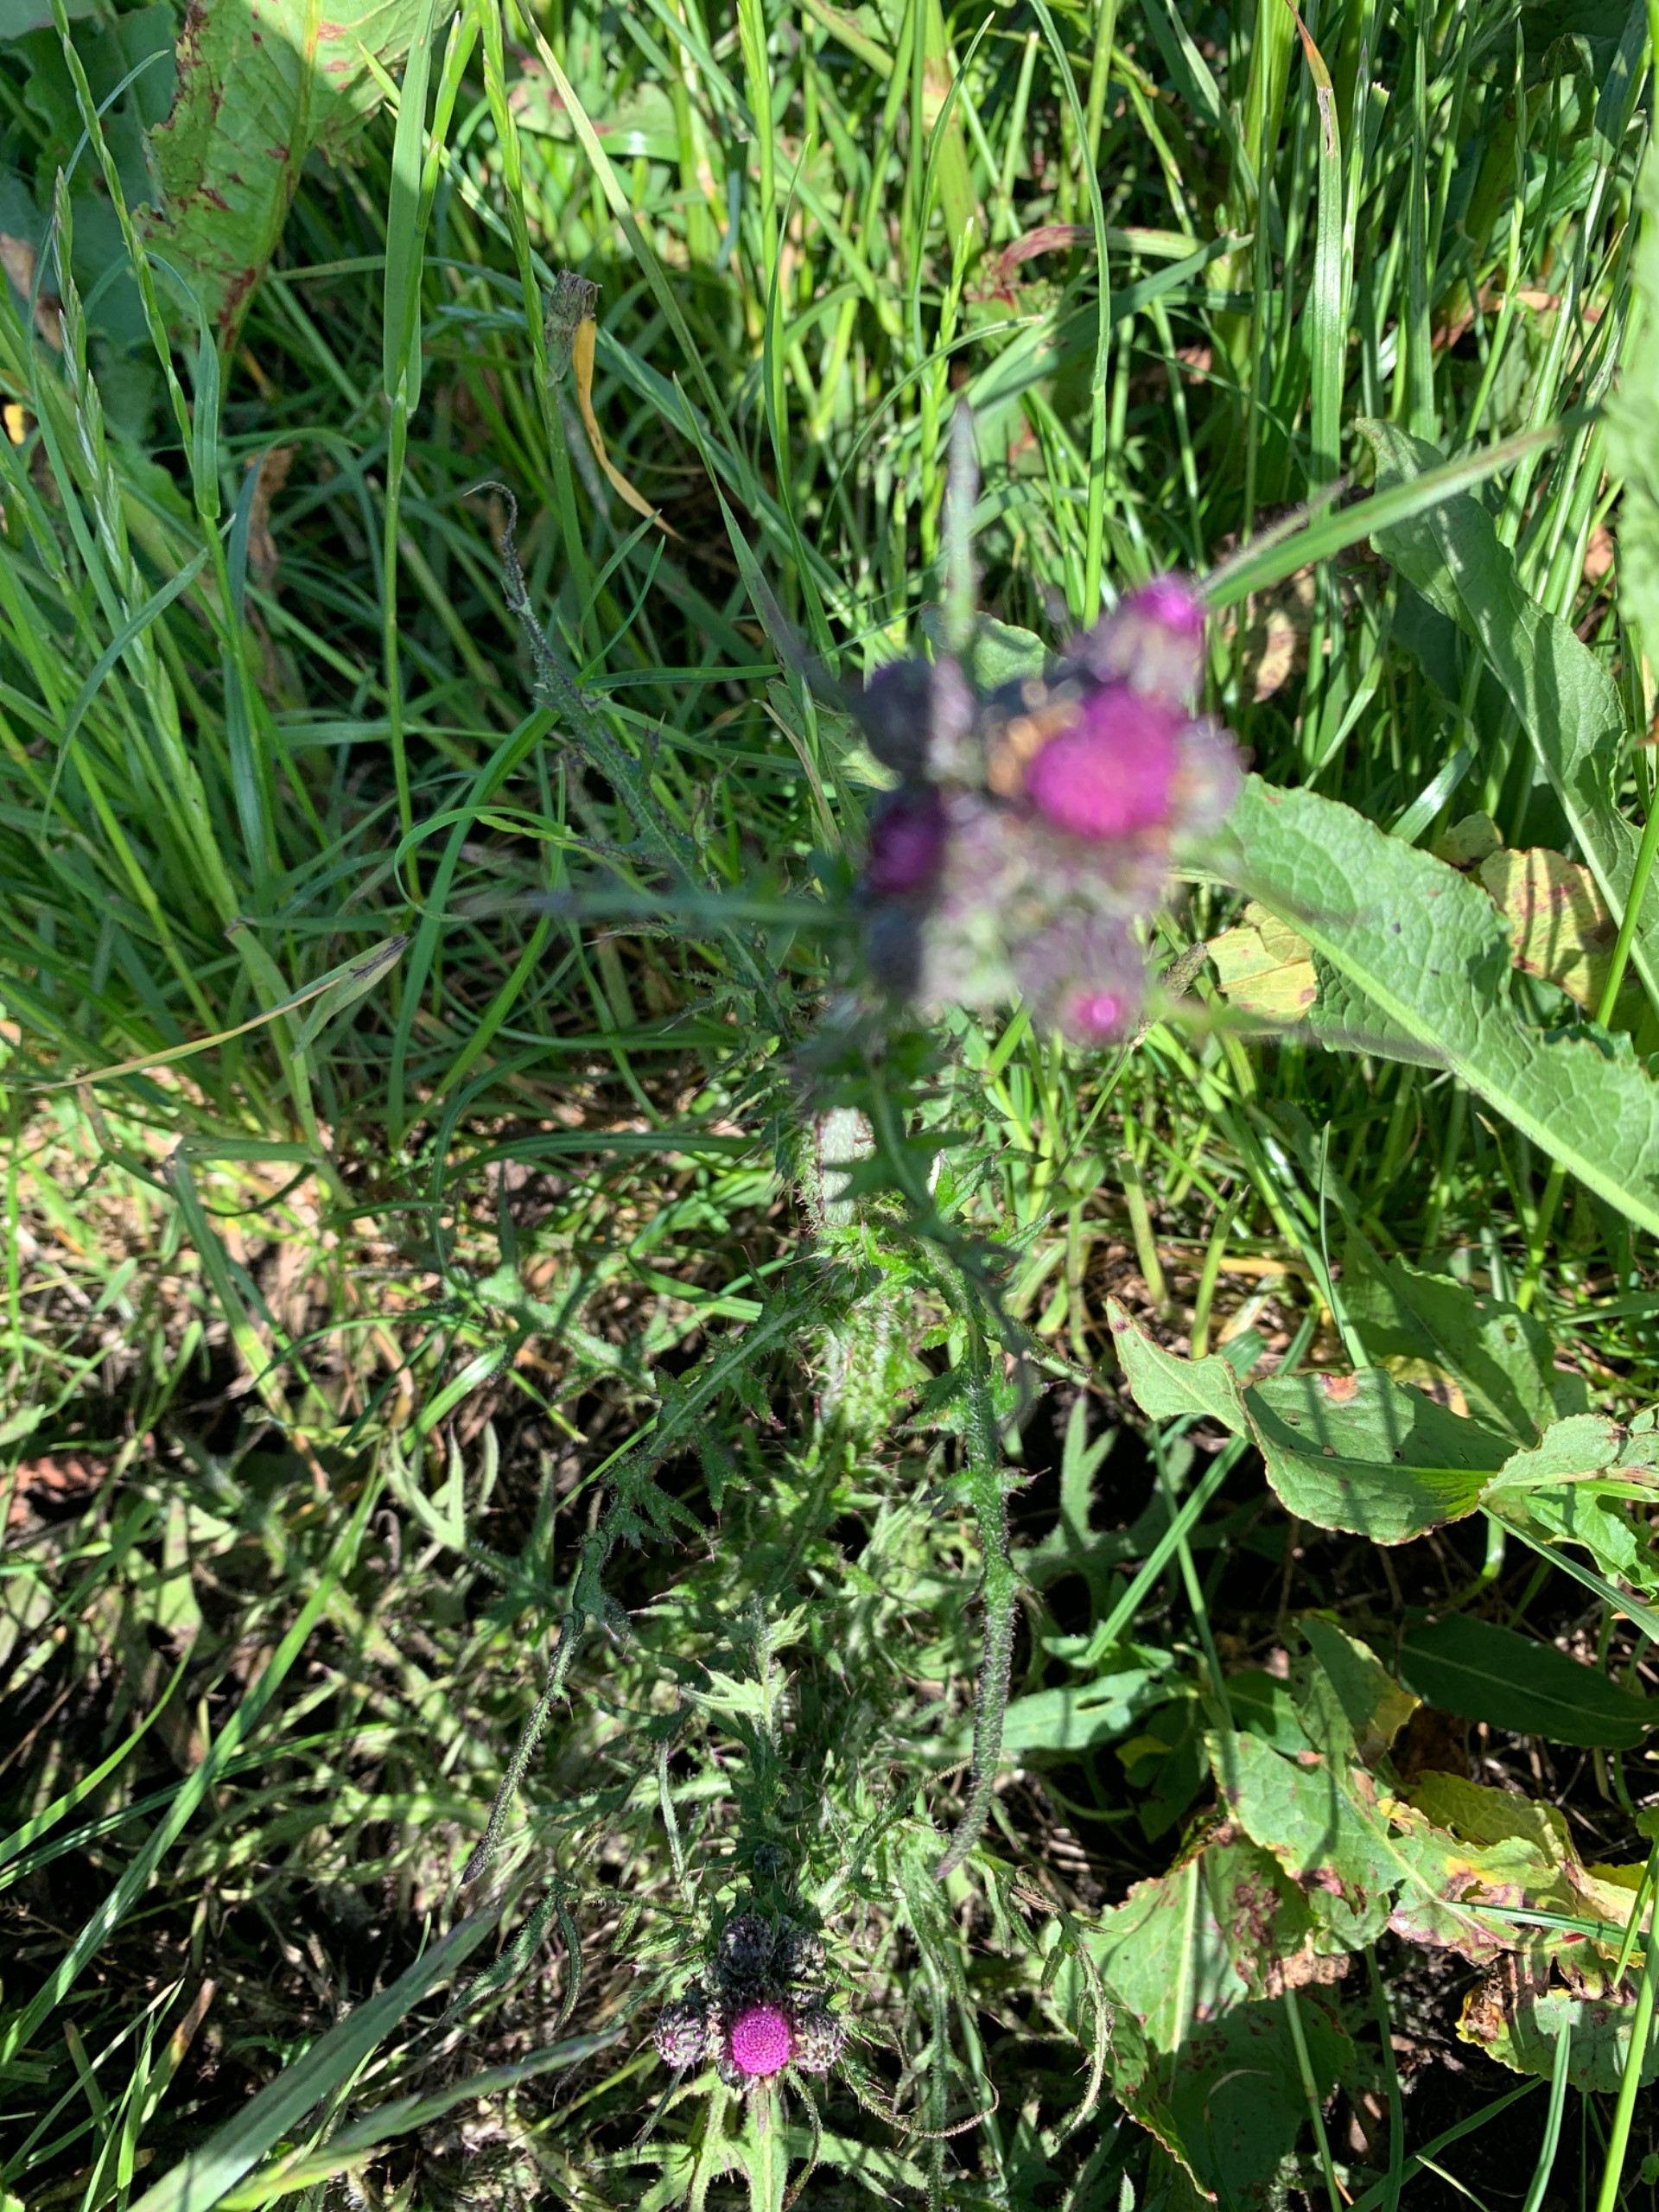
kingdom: Plantae
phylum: Tracheophyta
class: Magnoliopsida
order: Asterales
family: Asteraceae
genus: Cirsium
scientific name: Cirsium palustre
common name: Kær-tidsel
